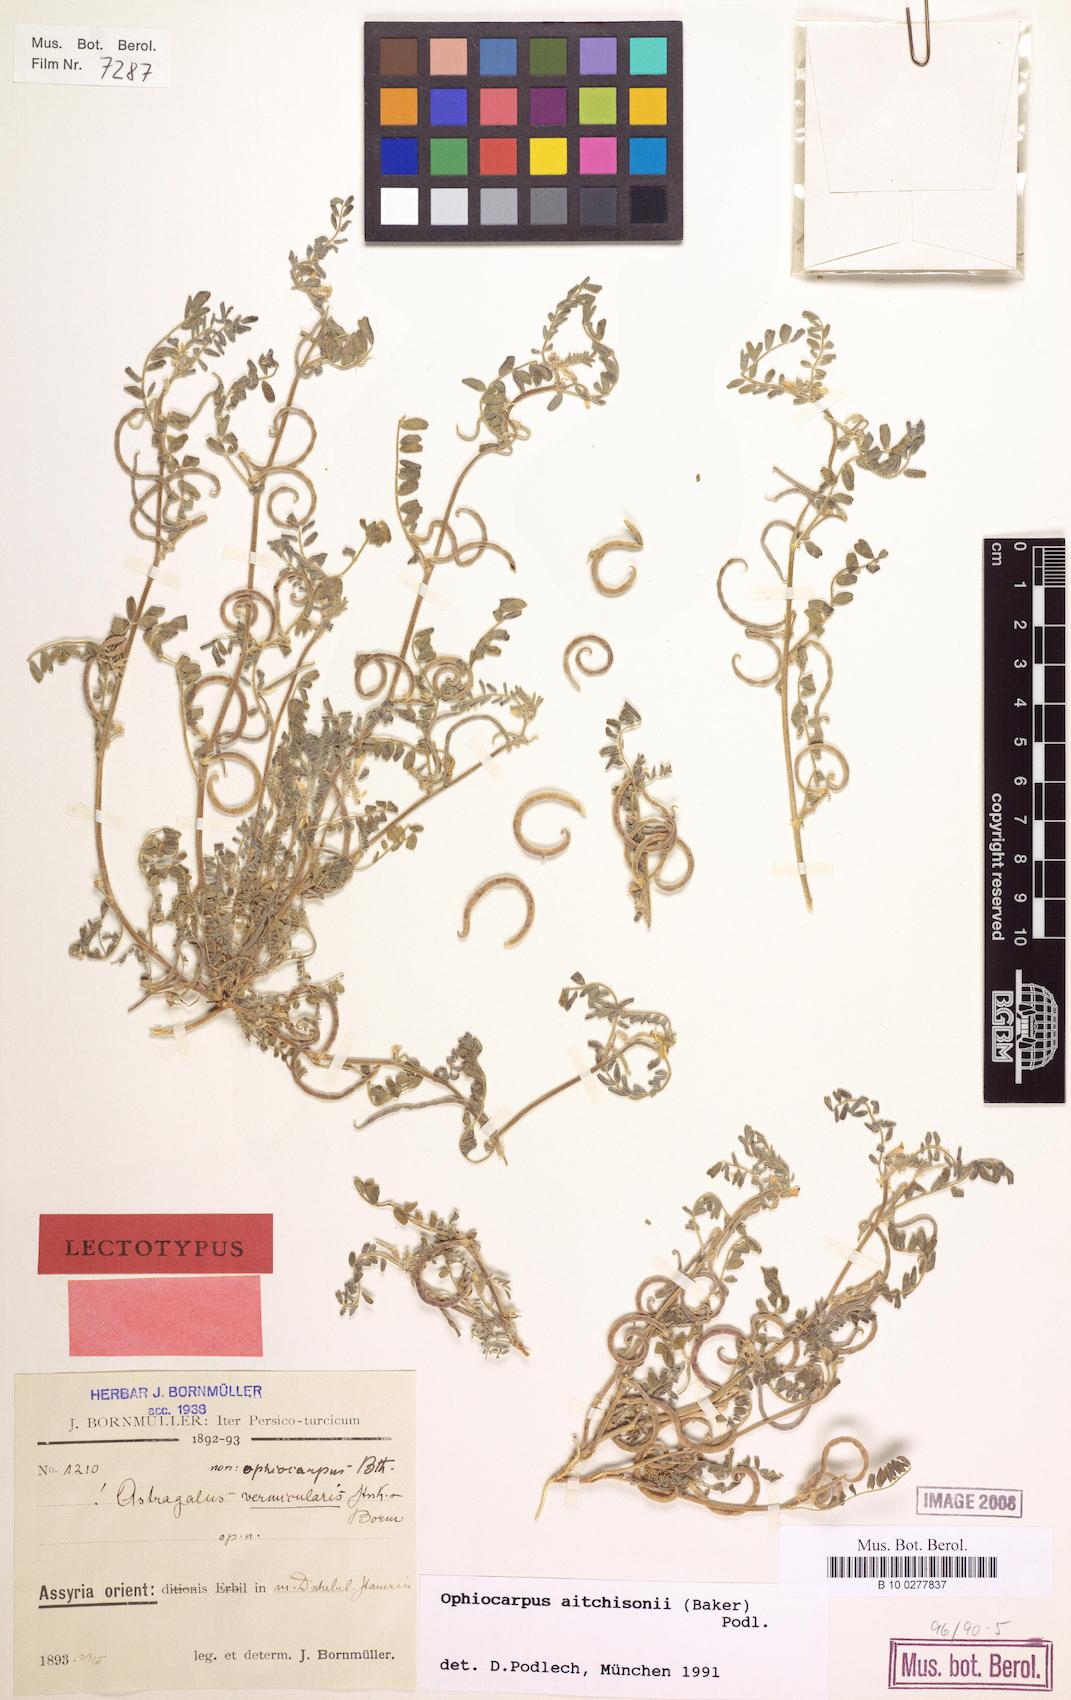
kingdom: Plantae
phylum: Tracheophyta
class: Magnoliopsida
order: Fabales
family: Fabaceae
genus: Astragalus
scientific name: Astragalus ophiocarpus
